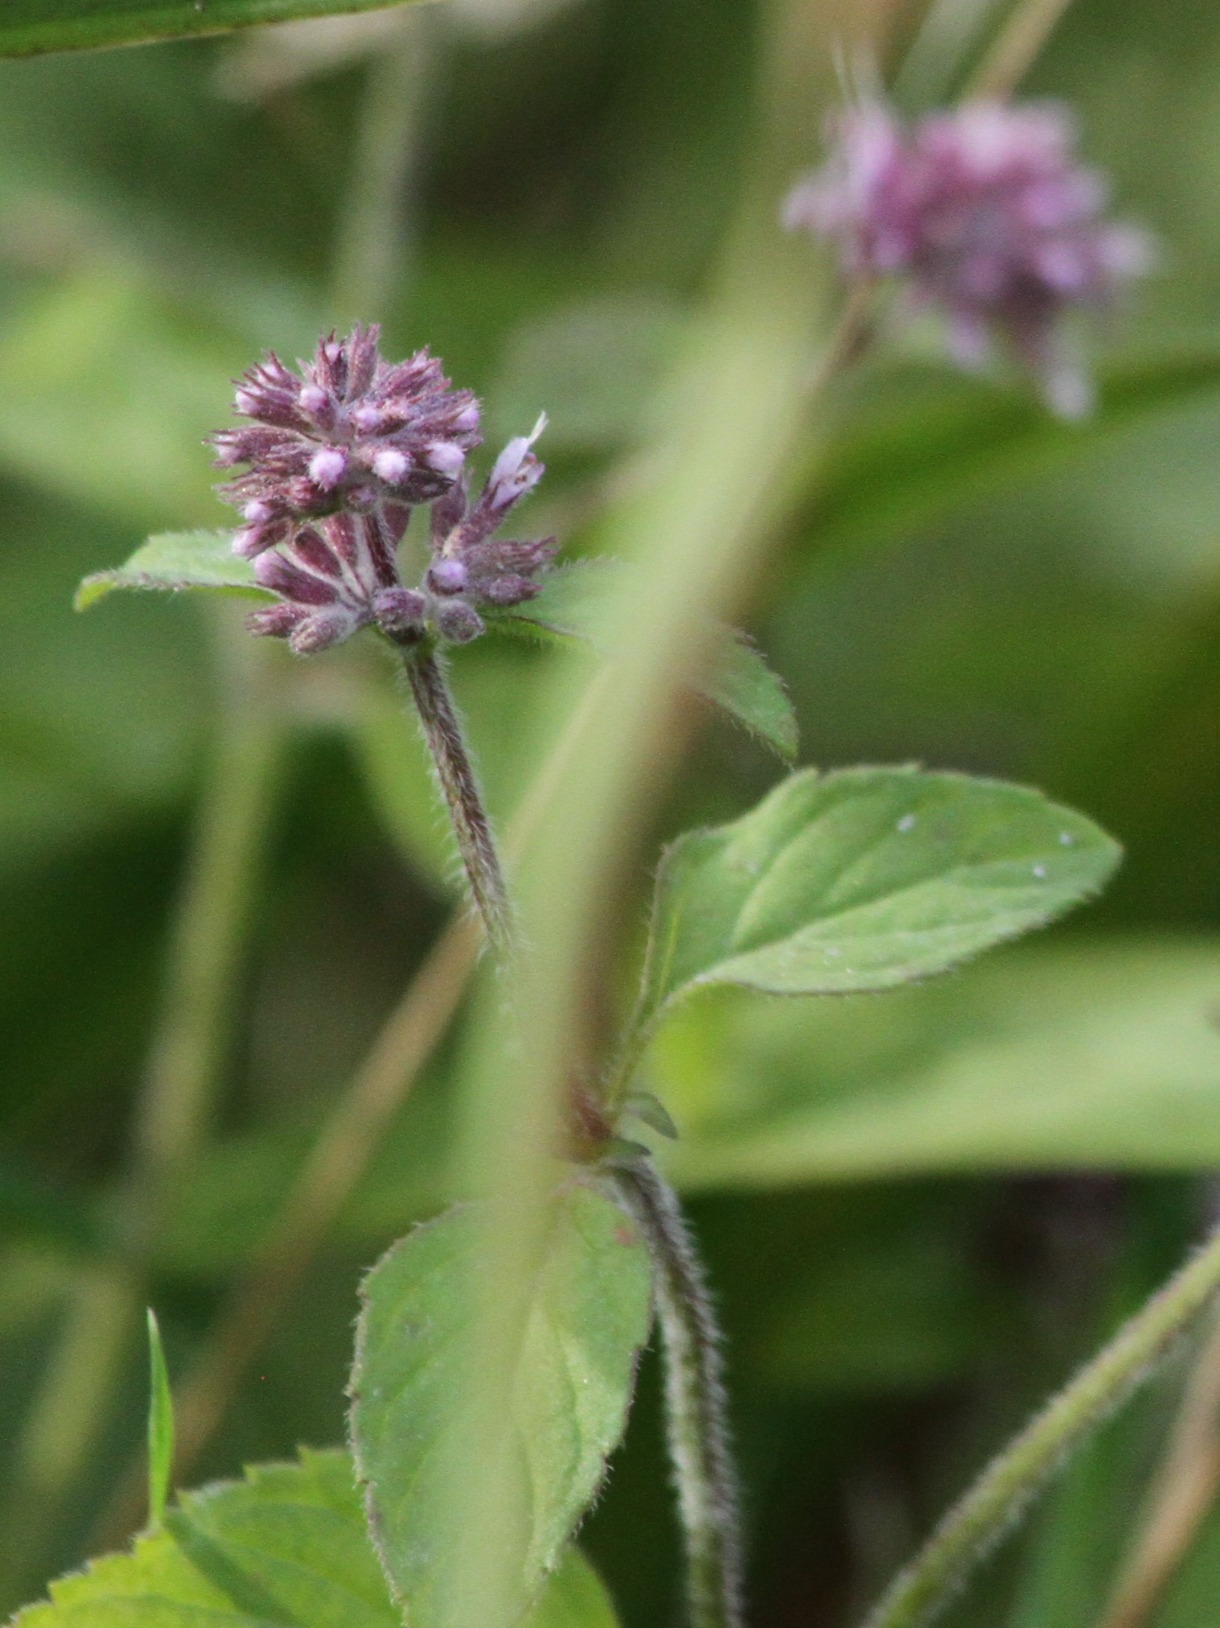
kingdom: Plantae
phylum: Tracheophyta
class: Magnoliopsida
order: Lamiales
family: Lamiaceae
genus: Mentha
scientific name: Mentha aquatica
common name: Vand-mynte
